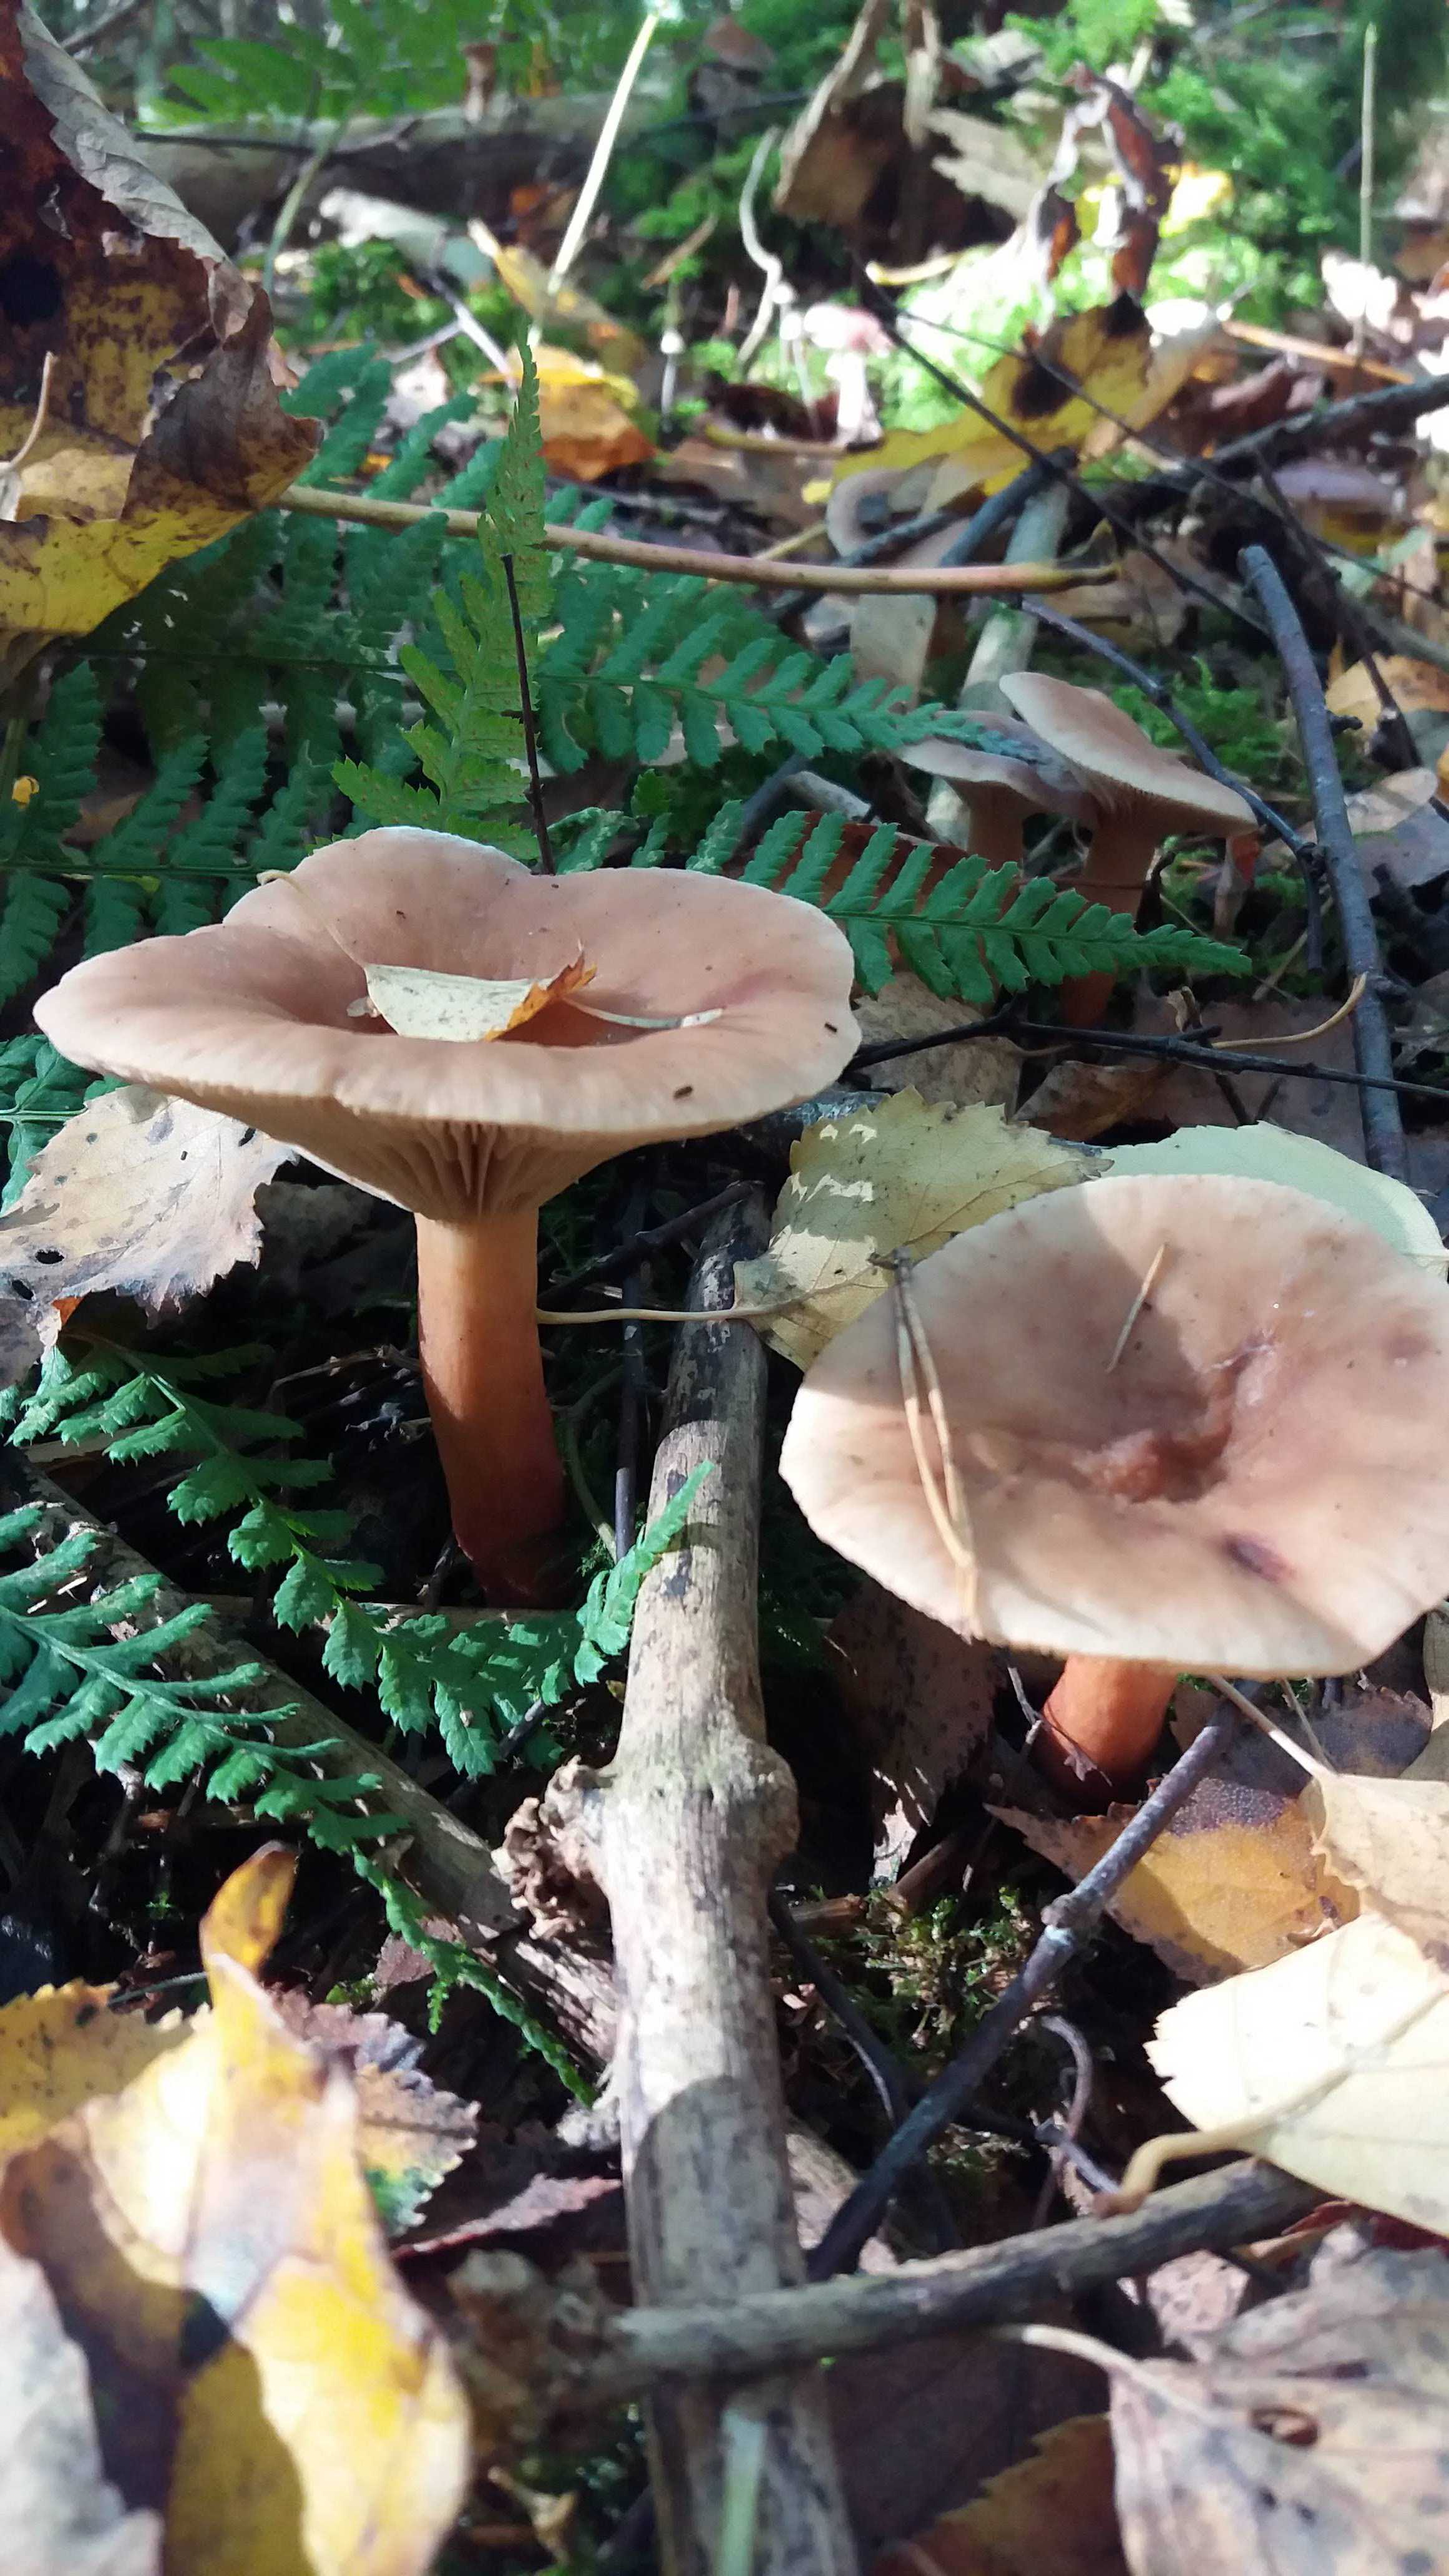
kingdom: Fungi
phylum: Basidiomycota
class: Agaricomycetes
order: Agaricales
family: Tricholomataceae
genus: Infundibulicybe
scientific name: Infundibulicybe geotropa
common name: stor tragthat
